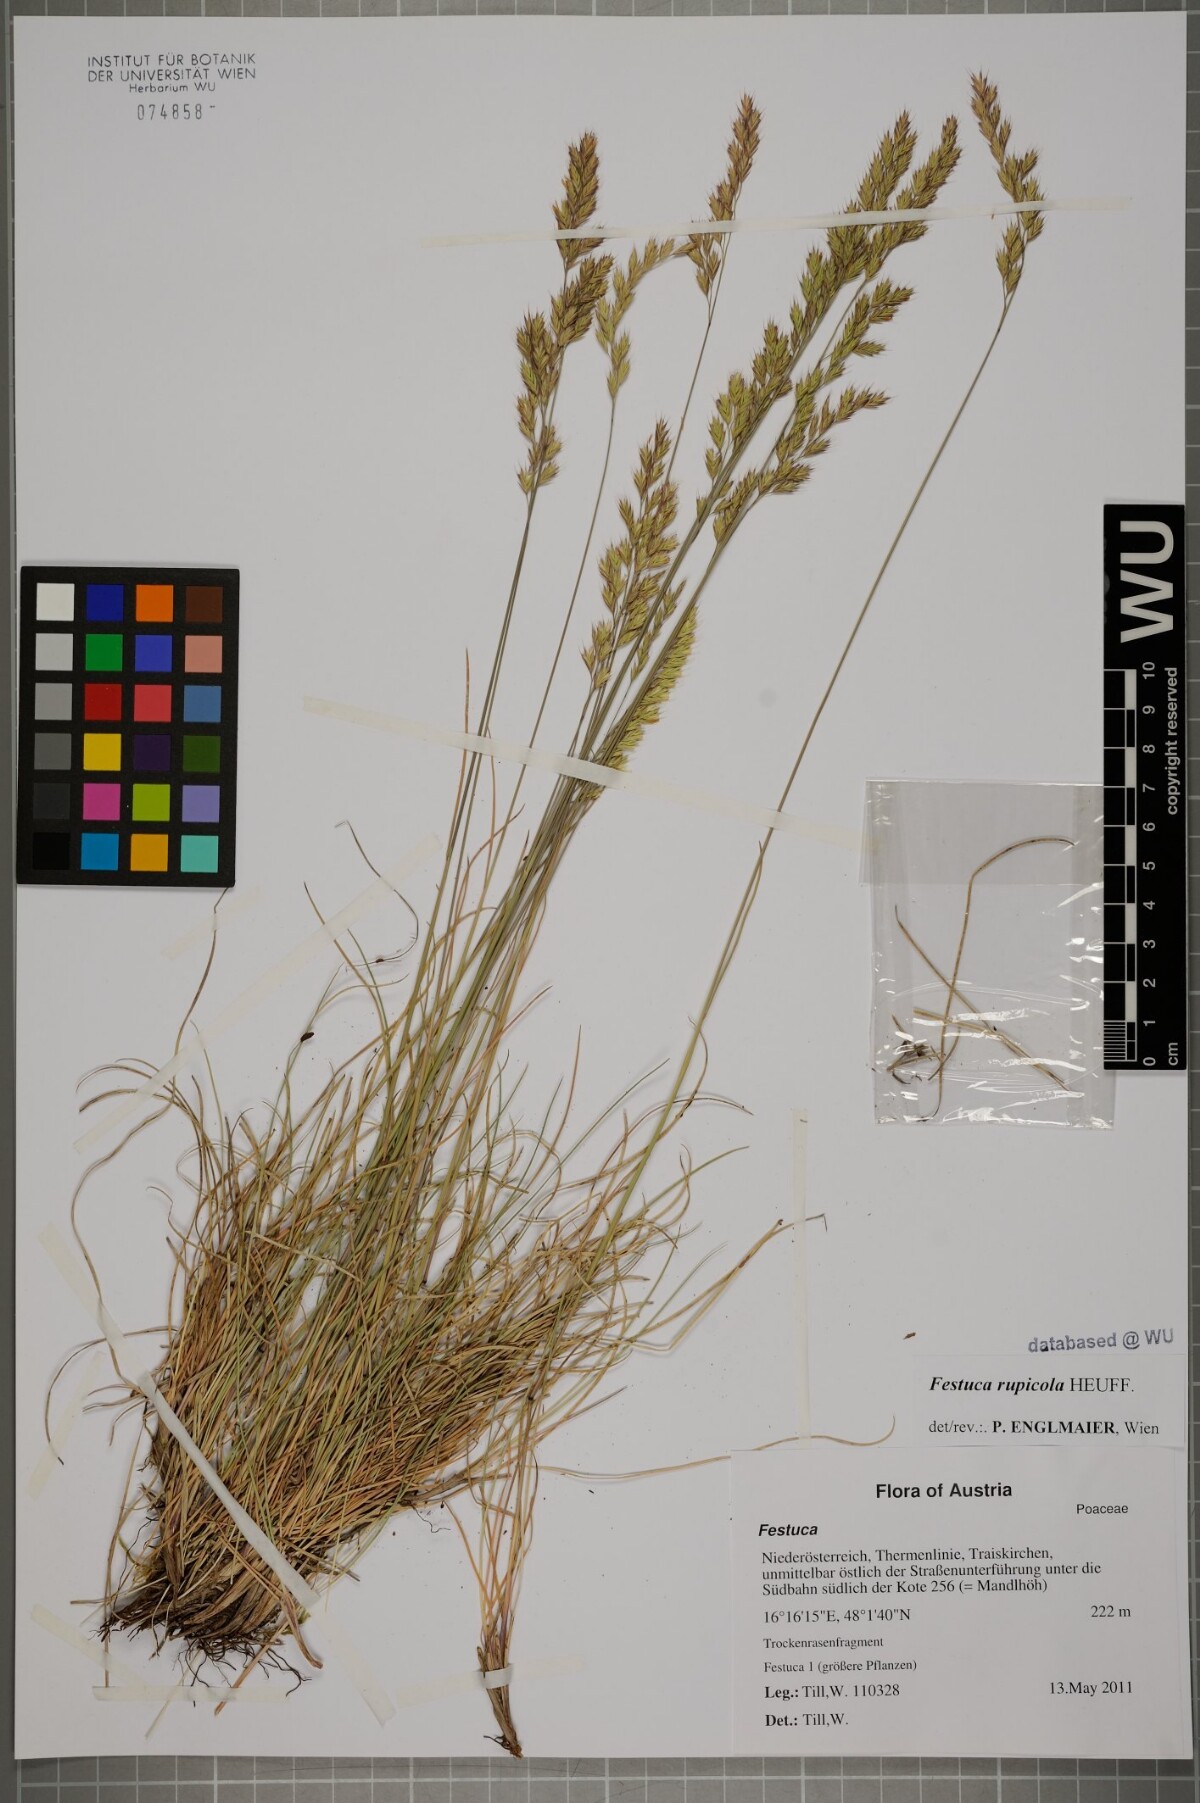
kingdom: Plantae
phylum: Tracheophyta
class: Liliopsida
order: Poales
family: Poaceae
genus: Festuca
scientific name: Festuca rupicola
